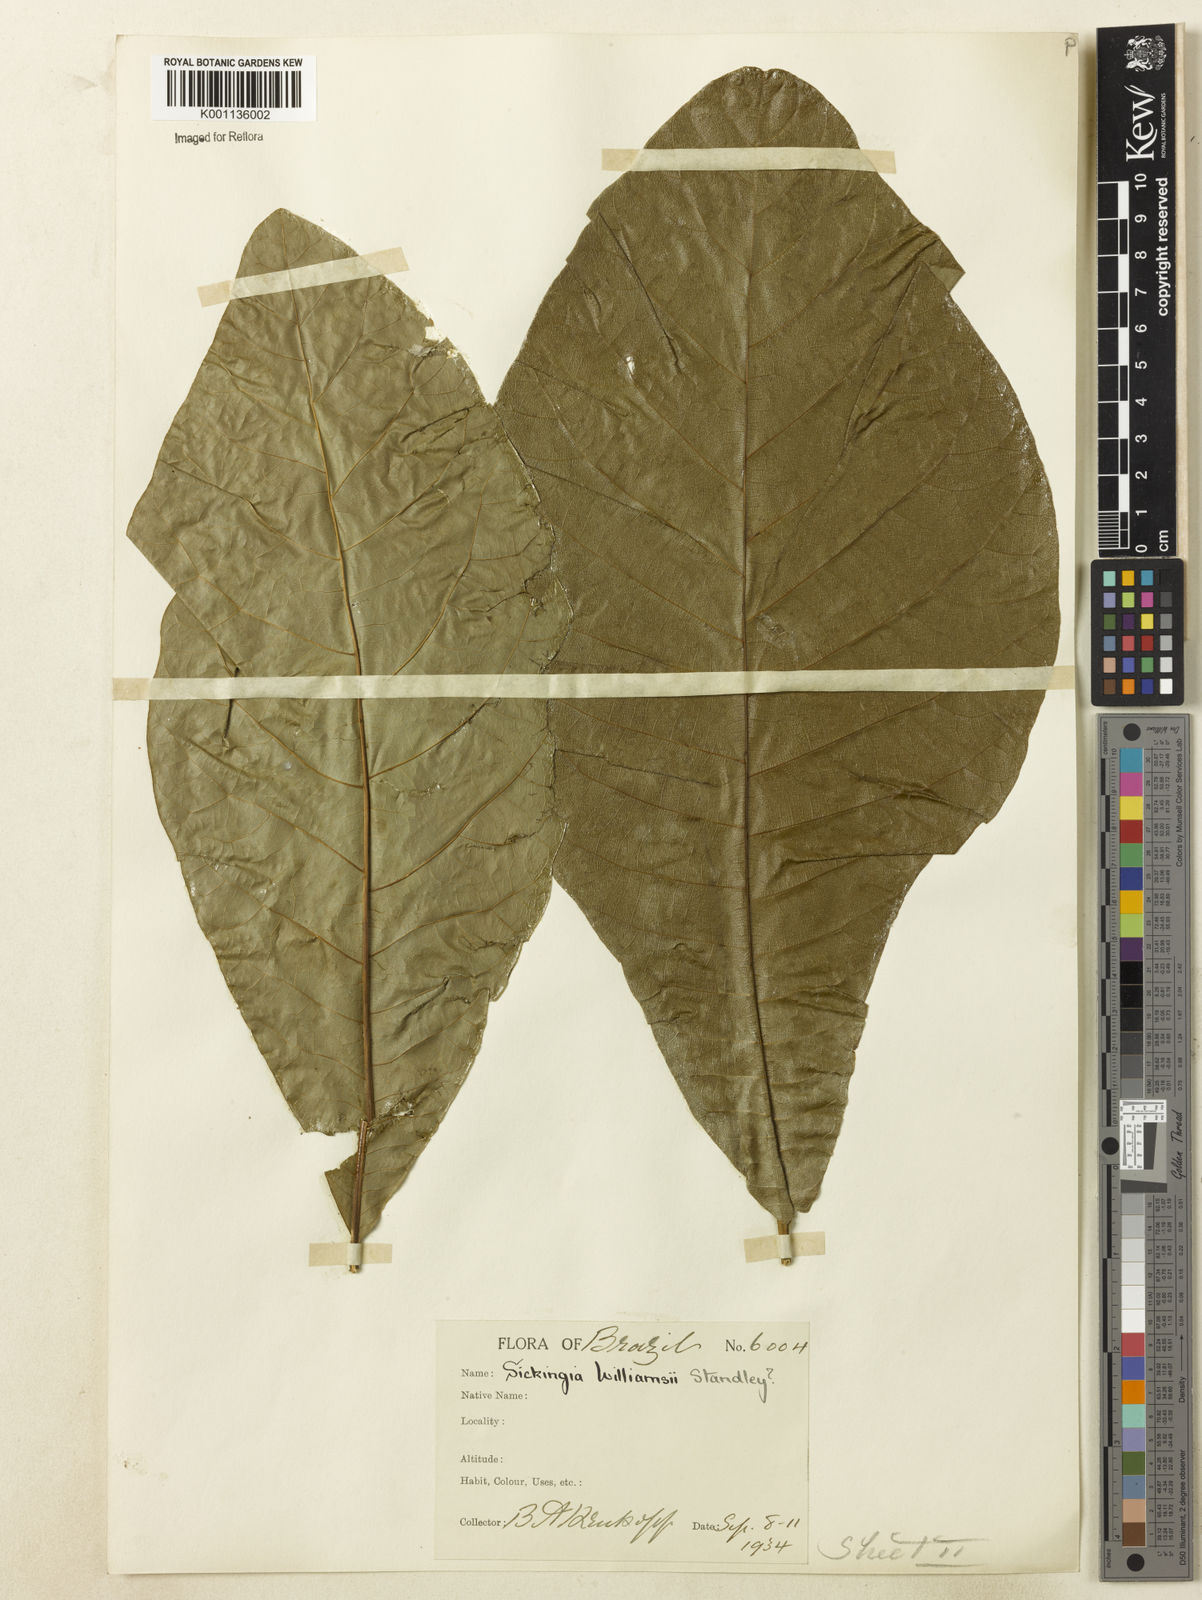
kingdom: Plantae
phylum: Tracheophyta
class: Magnoliopsida
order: Gentianales
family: Rubiaceae
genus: Simira
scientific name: Simira
